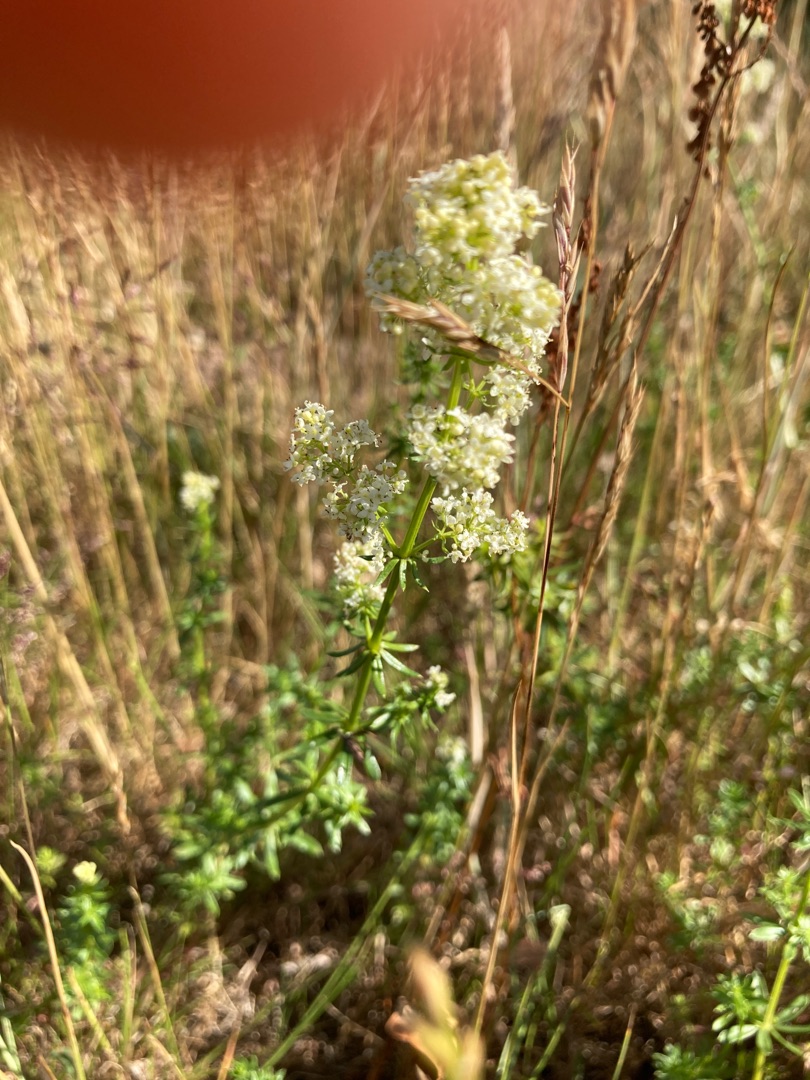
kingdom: Plantae
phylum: Tracheophyta
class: Magnoliopsida
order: Gentianales
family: Rubiaceae
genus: Galium
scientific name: Galium mollugo
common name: Hvid snerre
